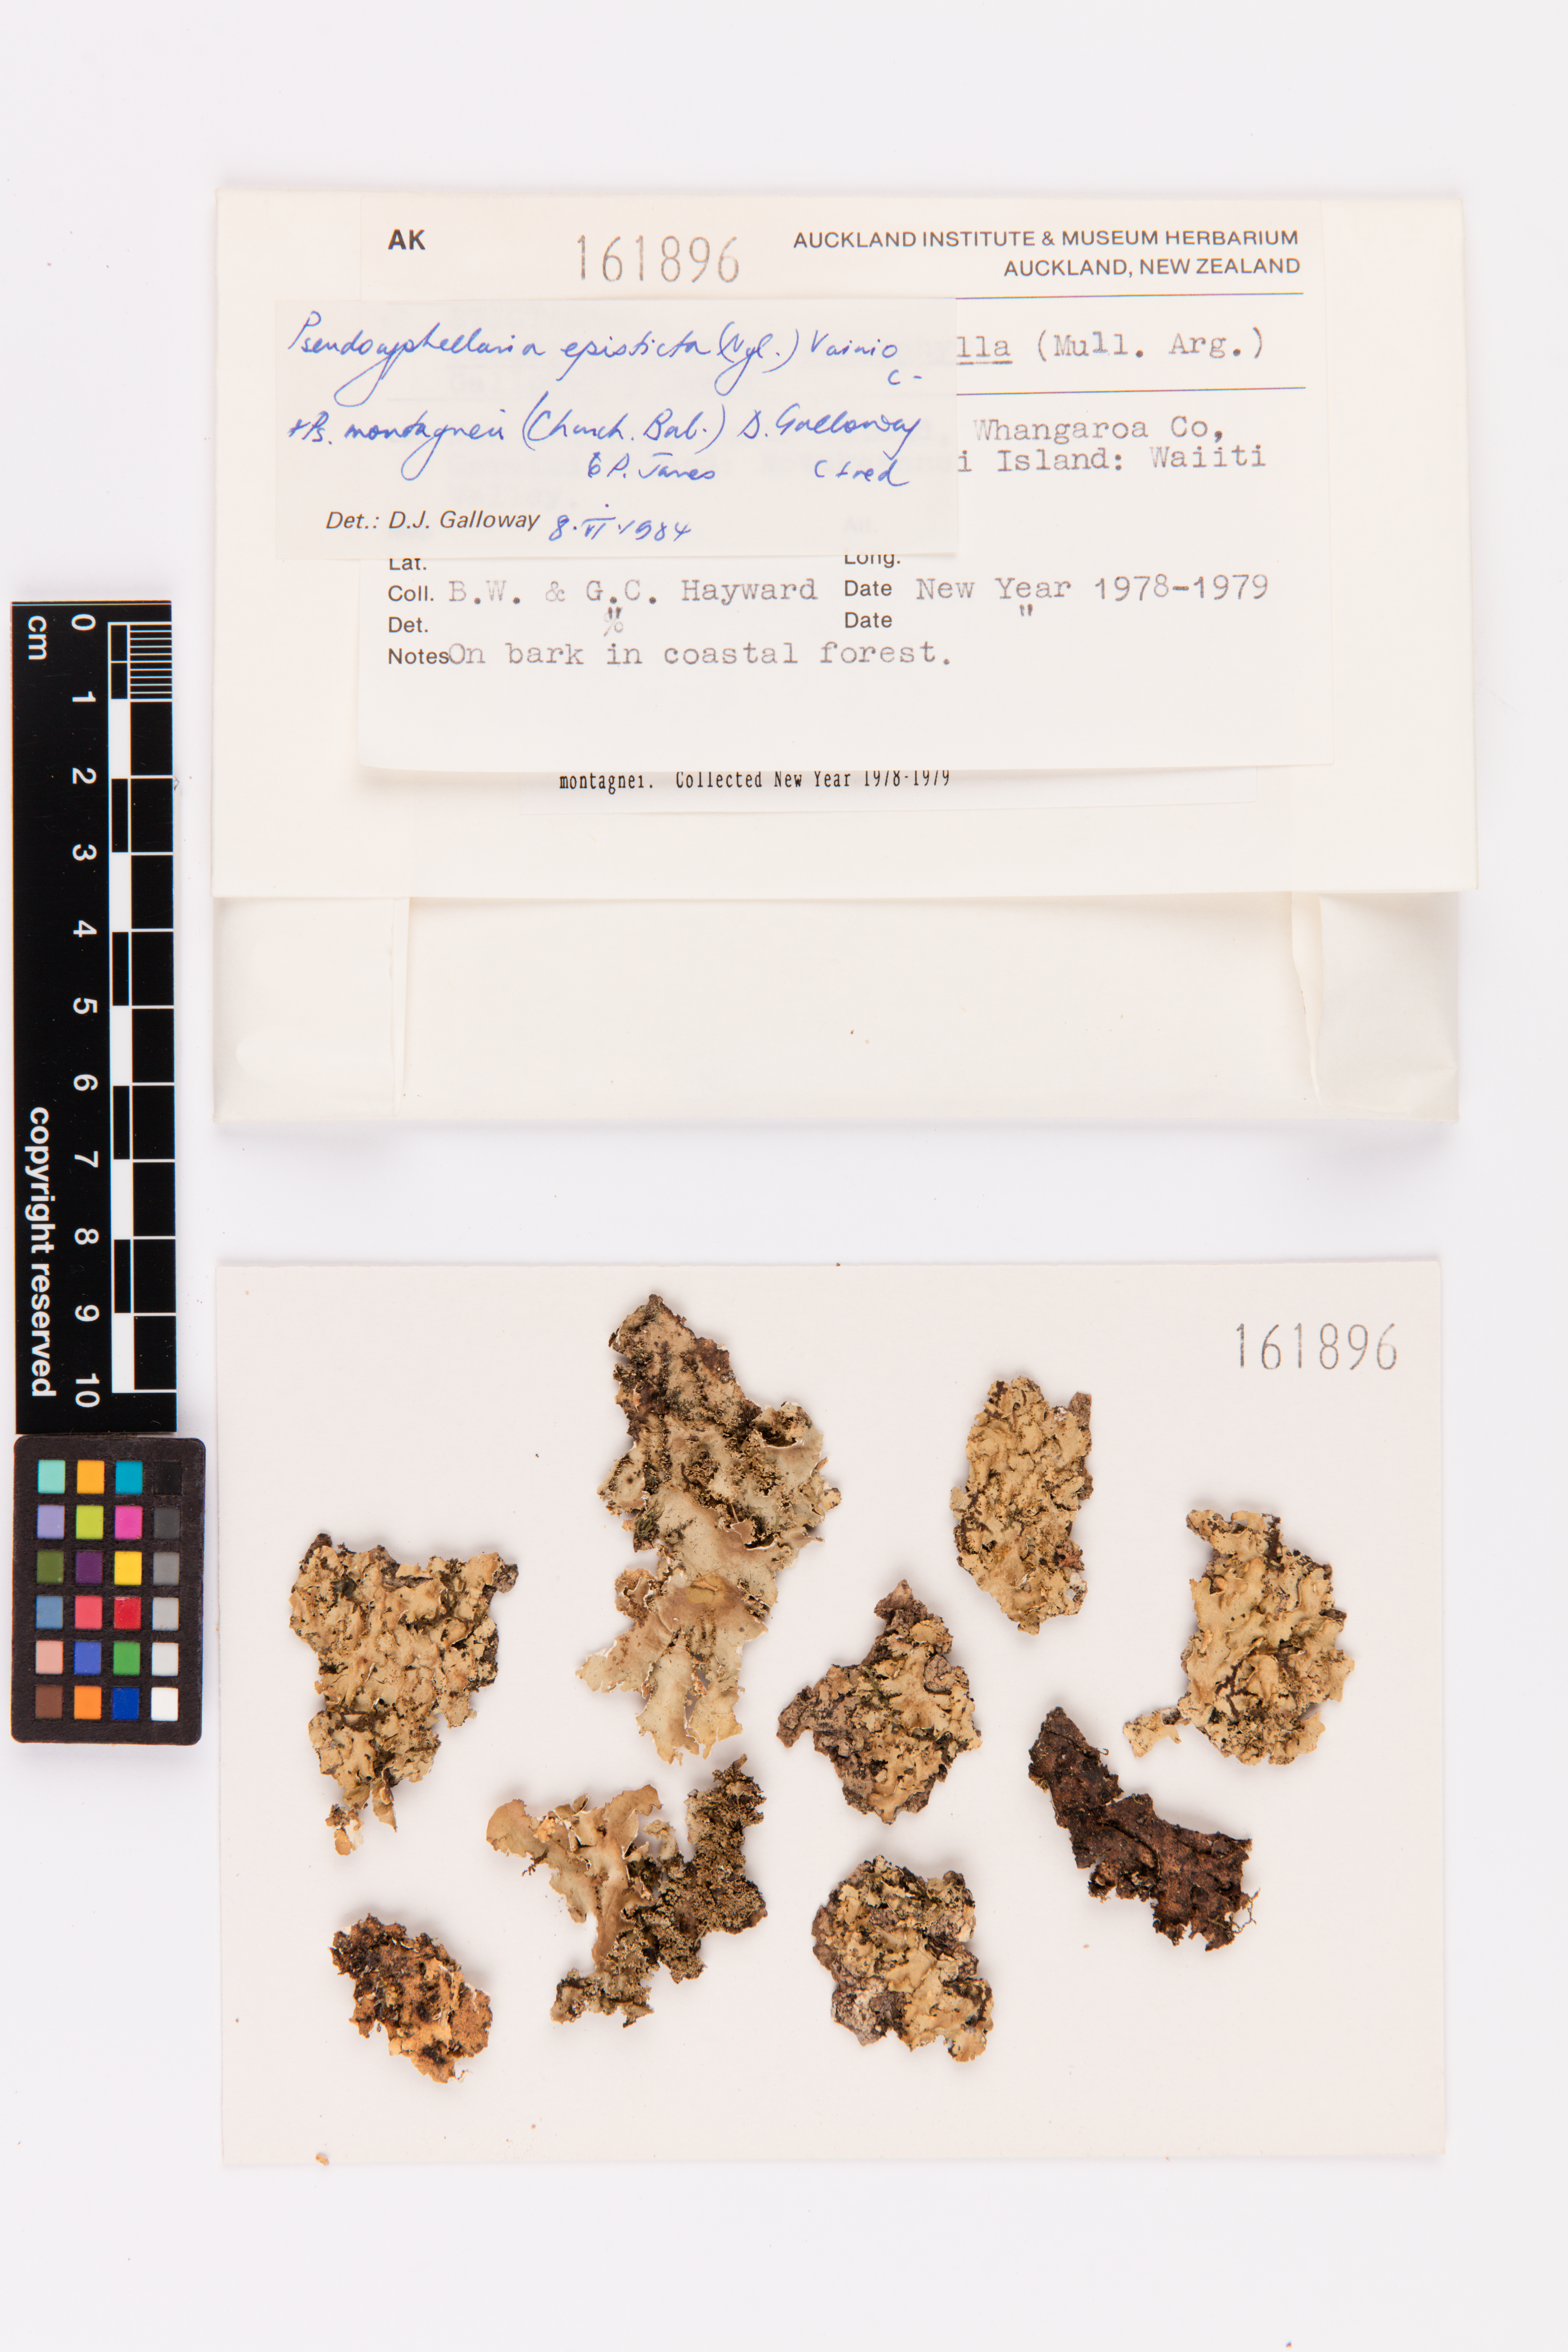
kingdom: Fungi
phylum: Ascomycota
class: Lecanoromycetes
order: Peltigerales
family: Lobariaceae
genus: Pseudocyphellaria
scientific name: Pseudocyphellaria episticta
